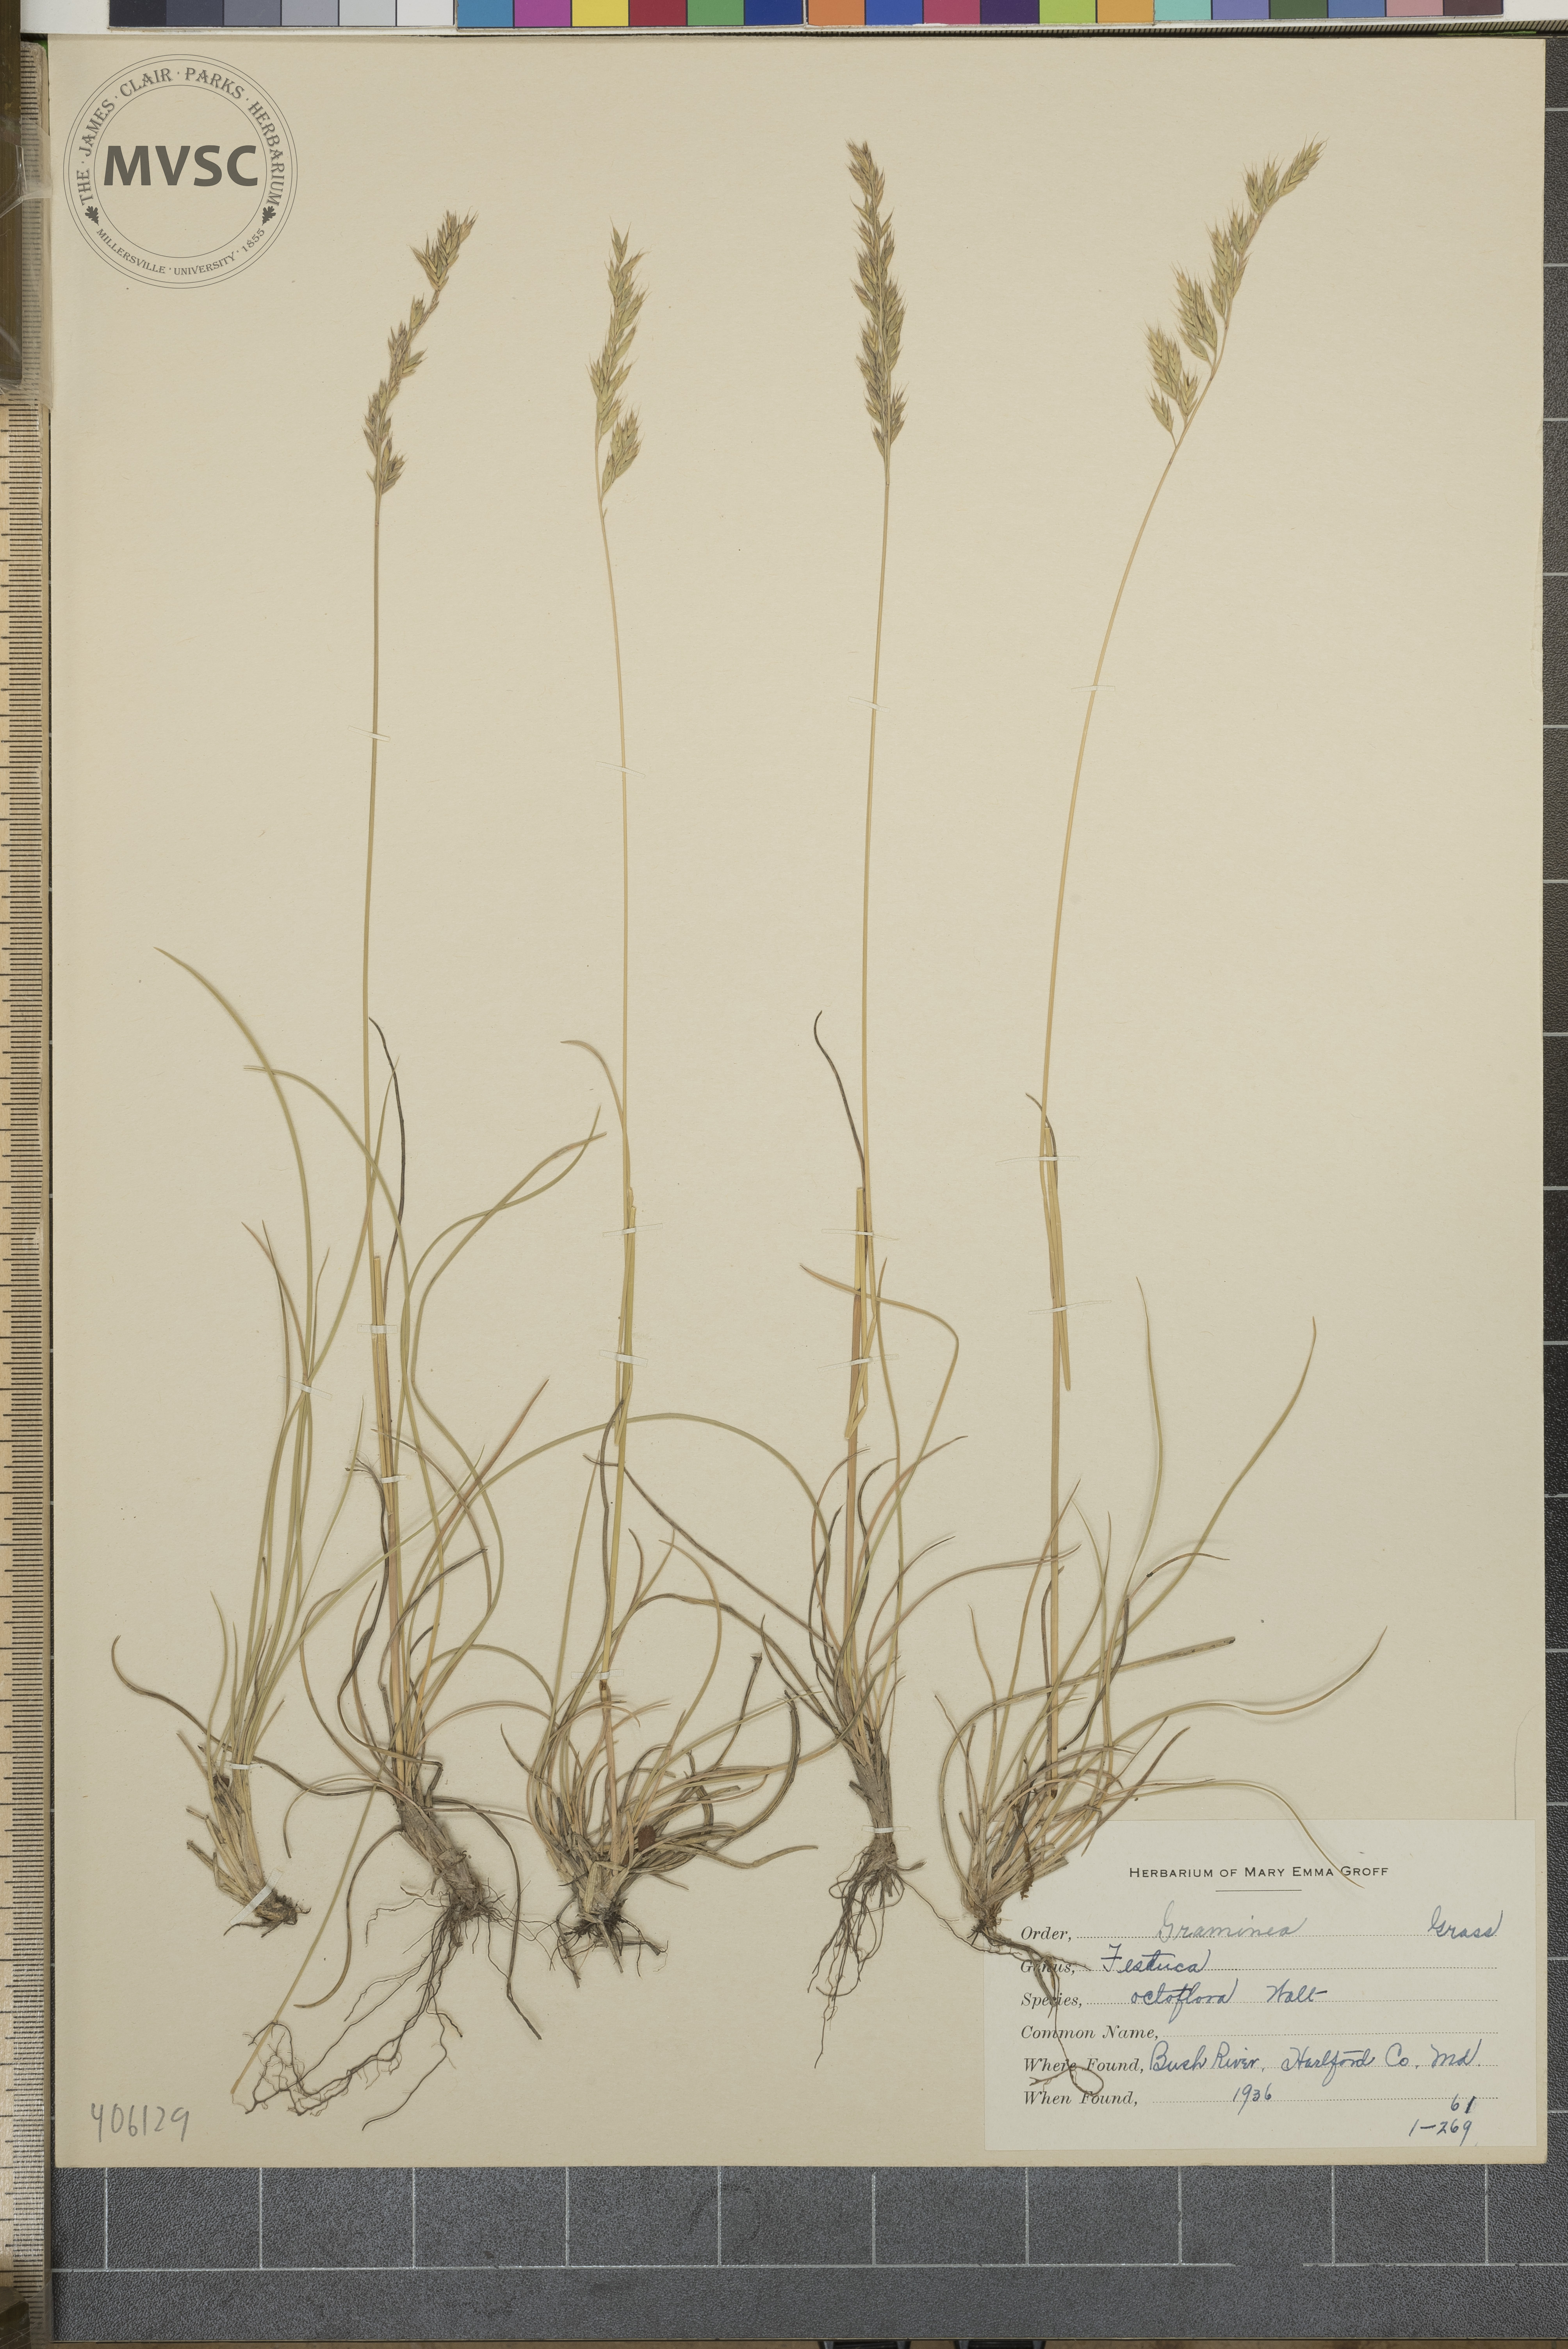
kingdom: Plantae
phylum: Tracheophyta
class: Liliopsida
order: Poales
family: Poaceae
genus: Festuca
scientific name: Festuca octoflora
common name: Sixweeks grass
